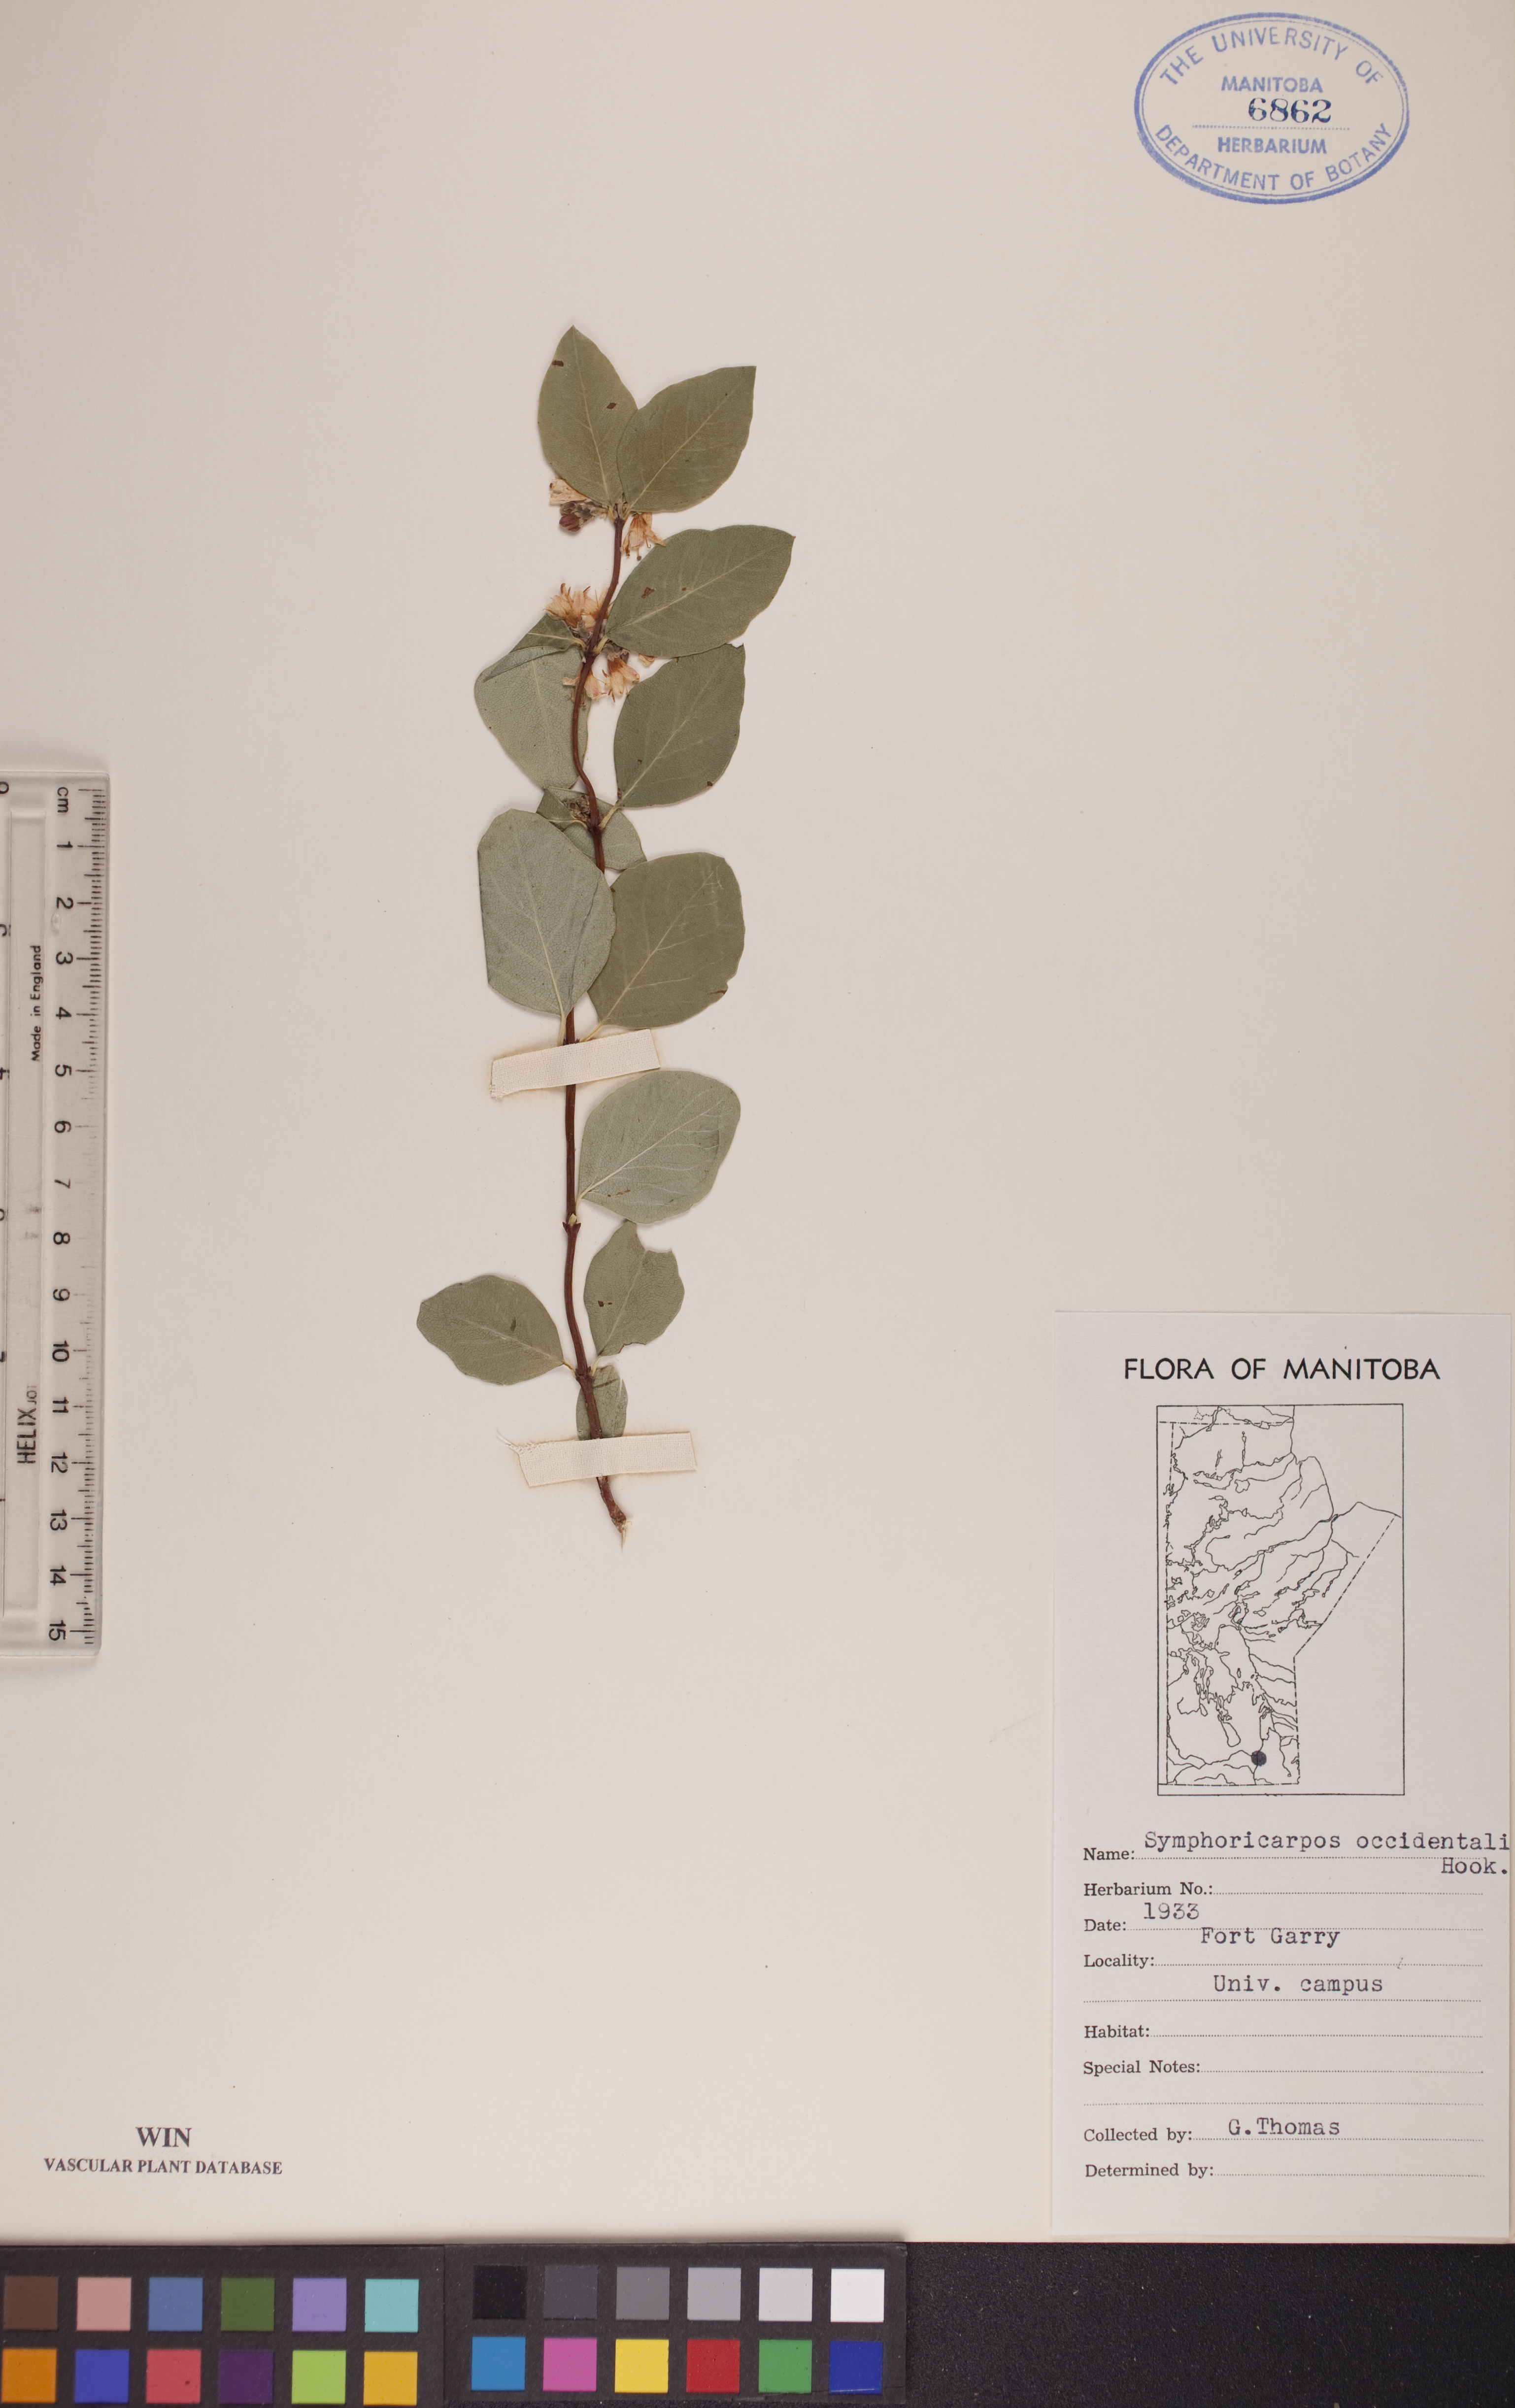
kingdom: Plantae
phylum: Tracheophyta
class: Magnoliopsida
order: Dipsacales
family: Caprifoliaceae
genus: Symphoricarpos
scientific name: Symphoricarpos occidentalis
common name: Wolfberry
